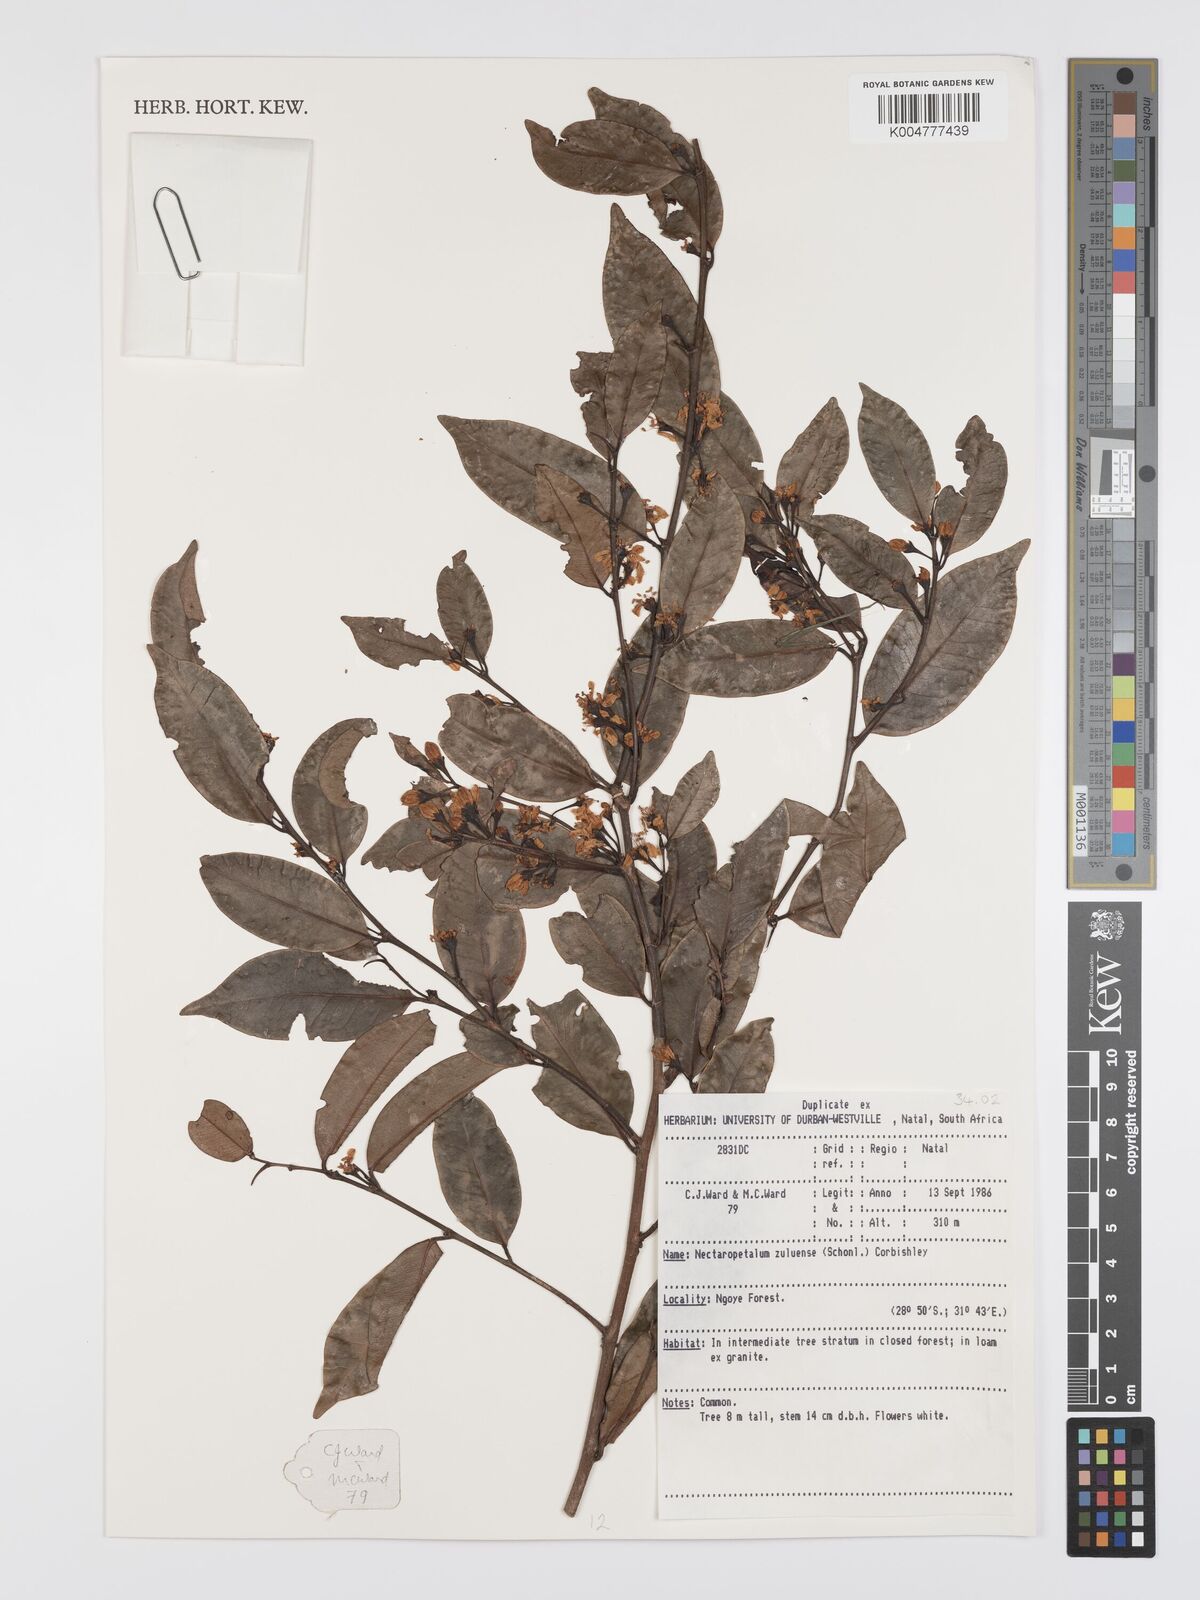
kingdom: Plantae
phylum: Tracheophyta
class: Magnoliopsida
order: Malpighiales
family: Erythroxylaceae
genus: Nectaropetalum
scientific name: Nectaropetalum zuluense
